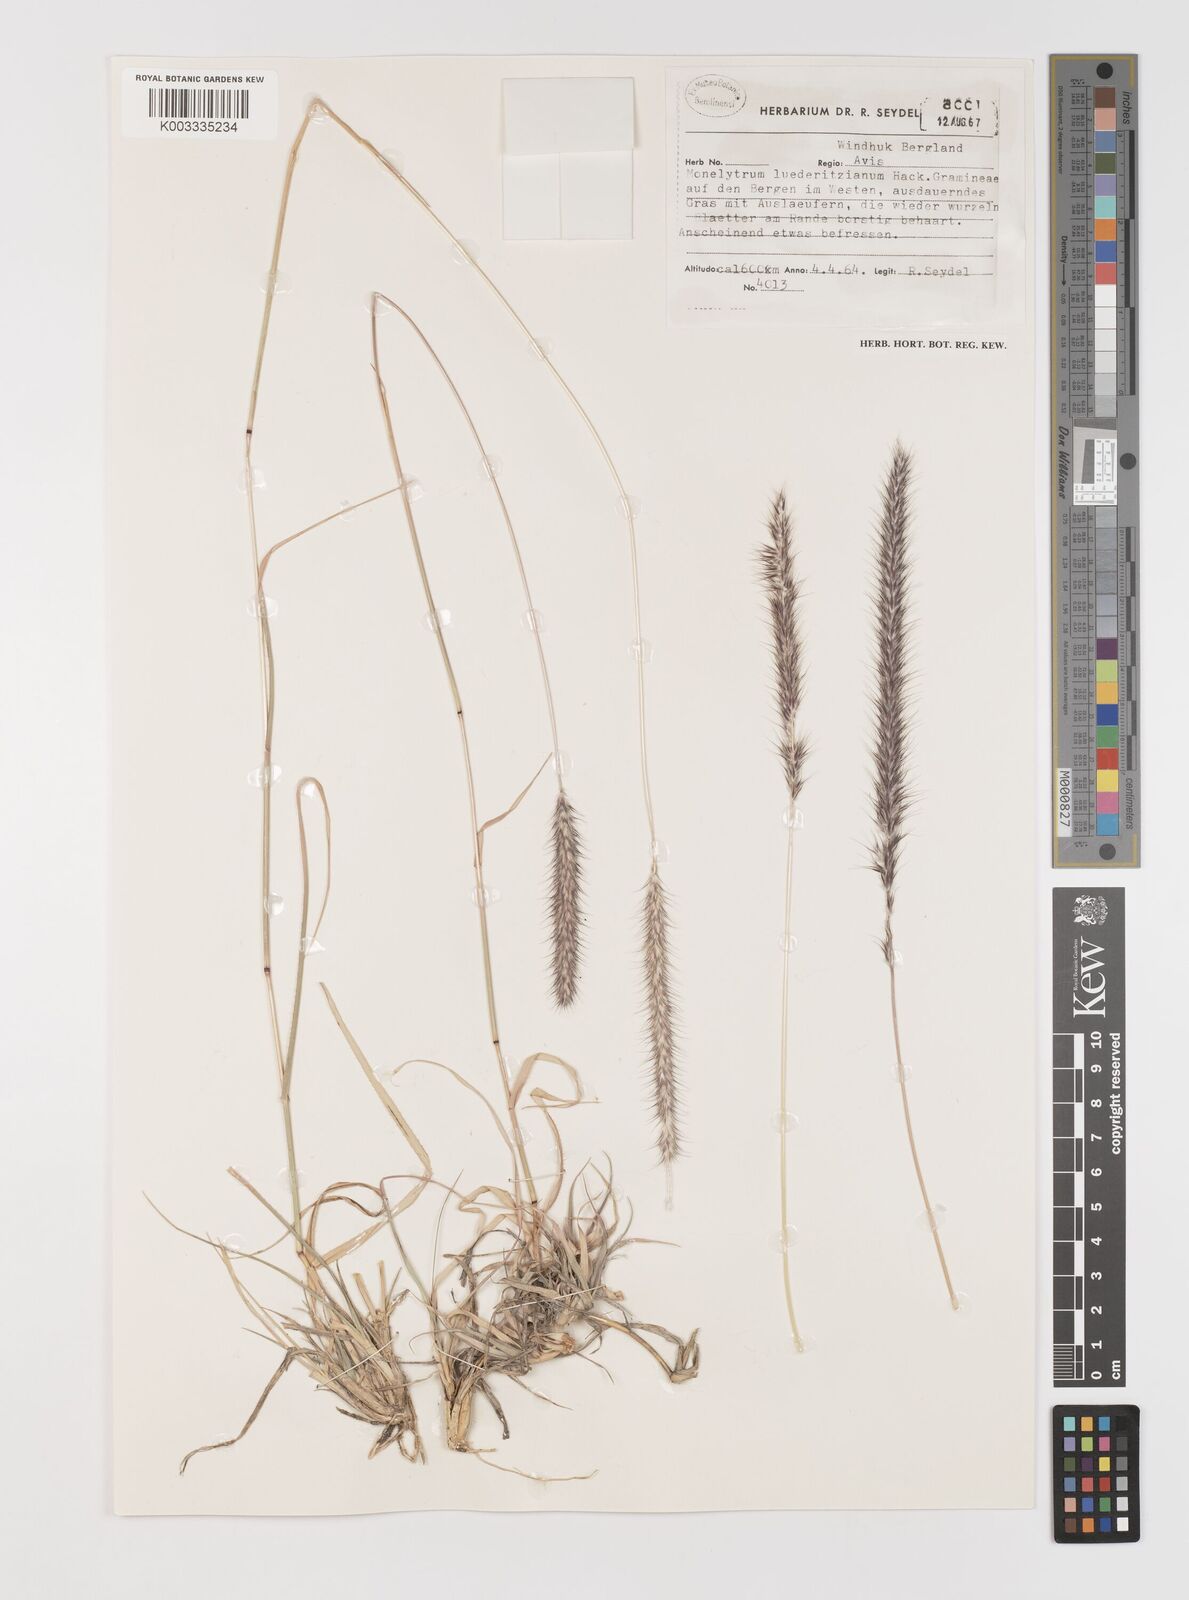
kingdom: Plantae
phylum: Tracheophyta
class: Liliopsida
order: Poales
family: Poaceae
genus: Monelytrum
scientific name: Monelytrum luederitzianum
